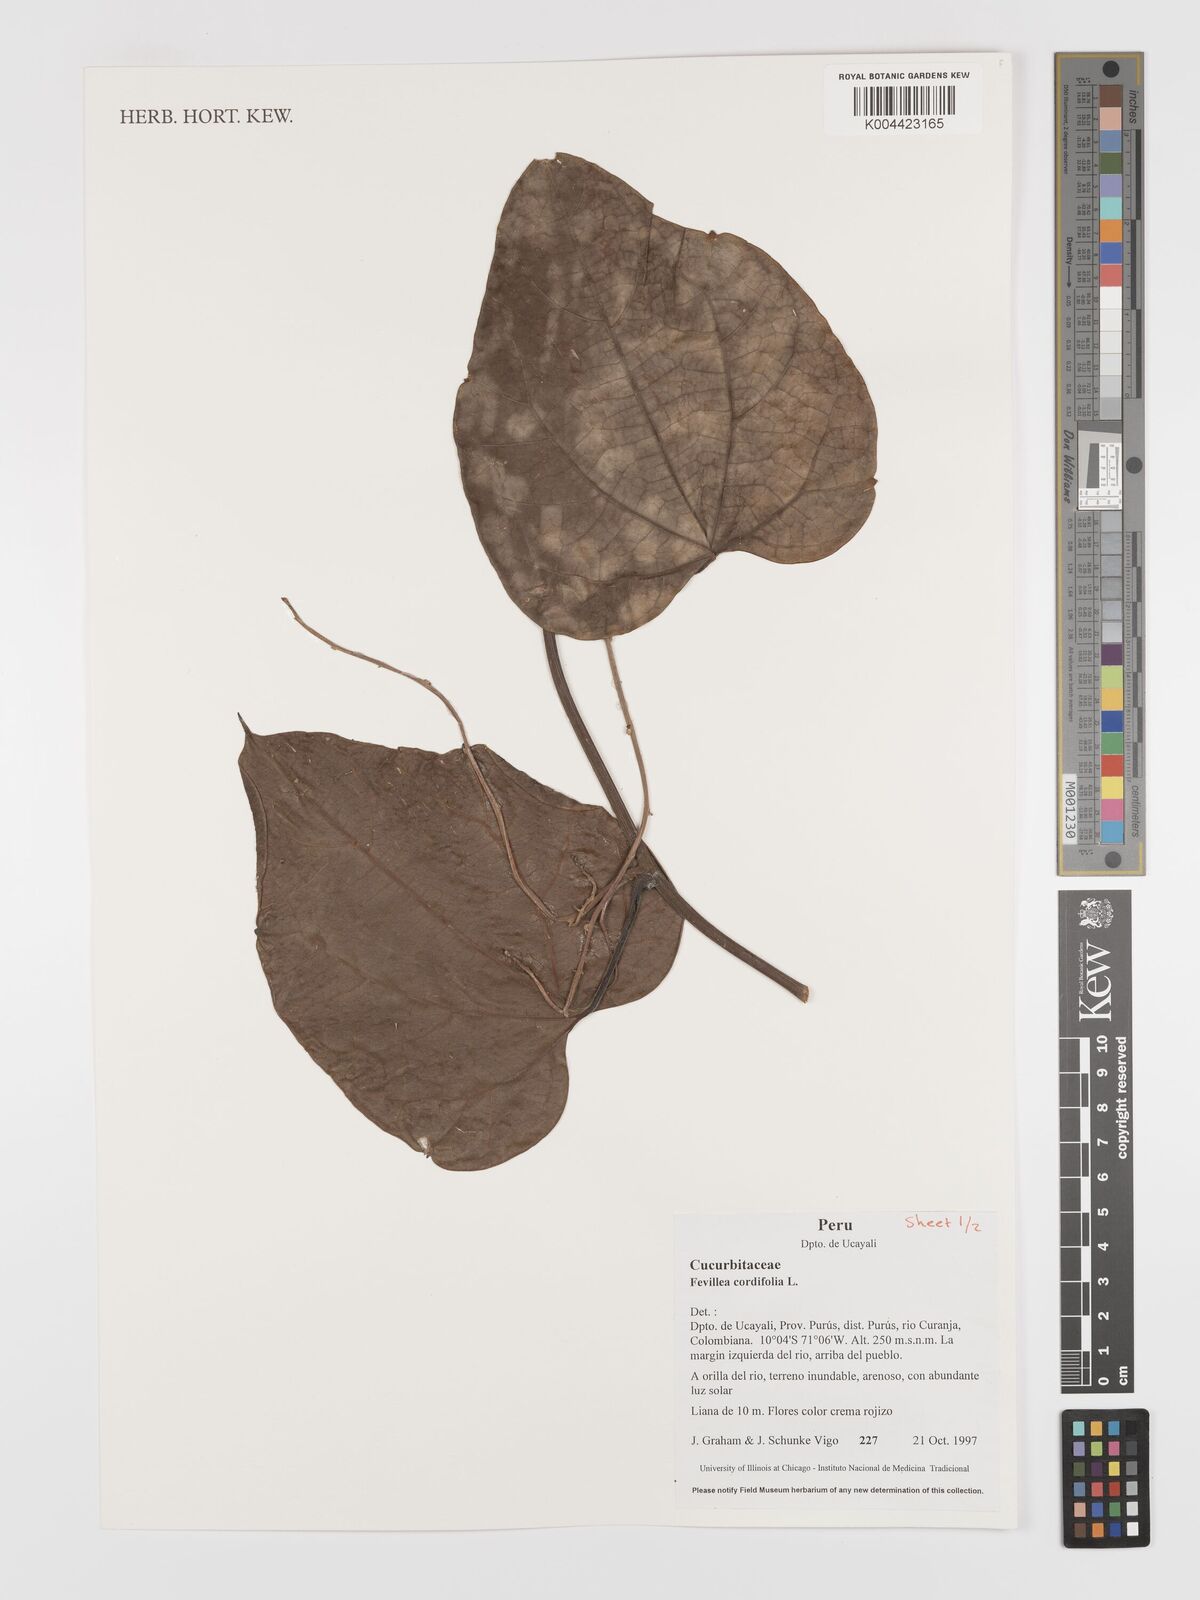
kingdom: Plantae
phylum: Tracheophyta
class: Magnoliopsida
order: Cucurbitales
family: Cucurbitaceae
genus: Fevillea
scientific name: Fevillea
